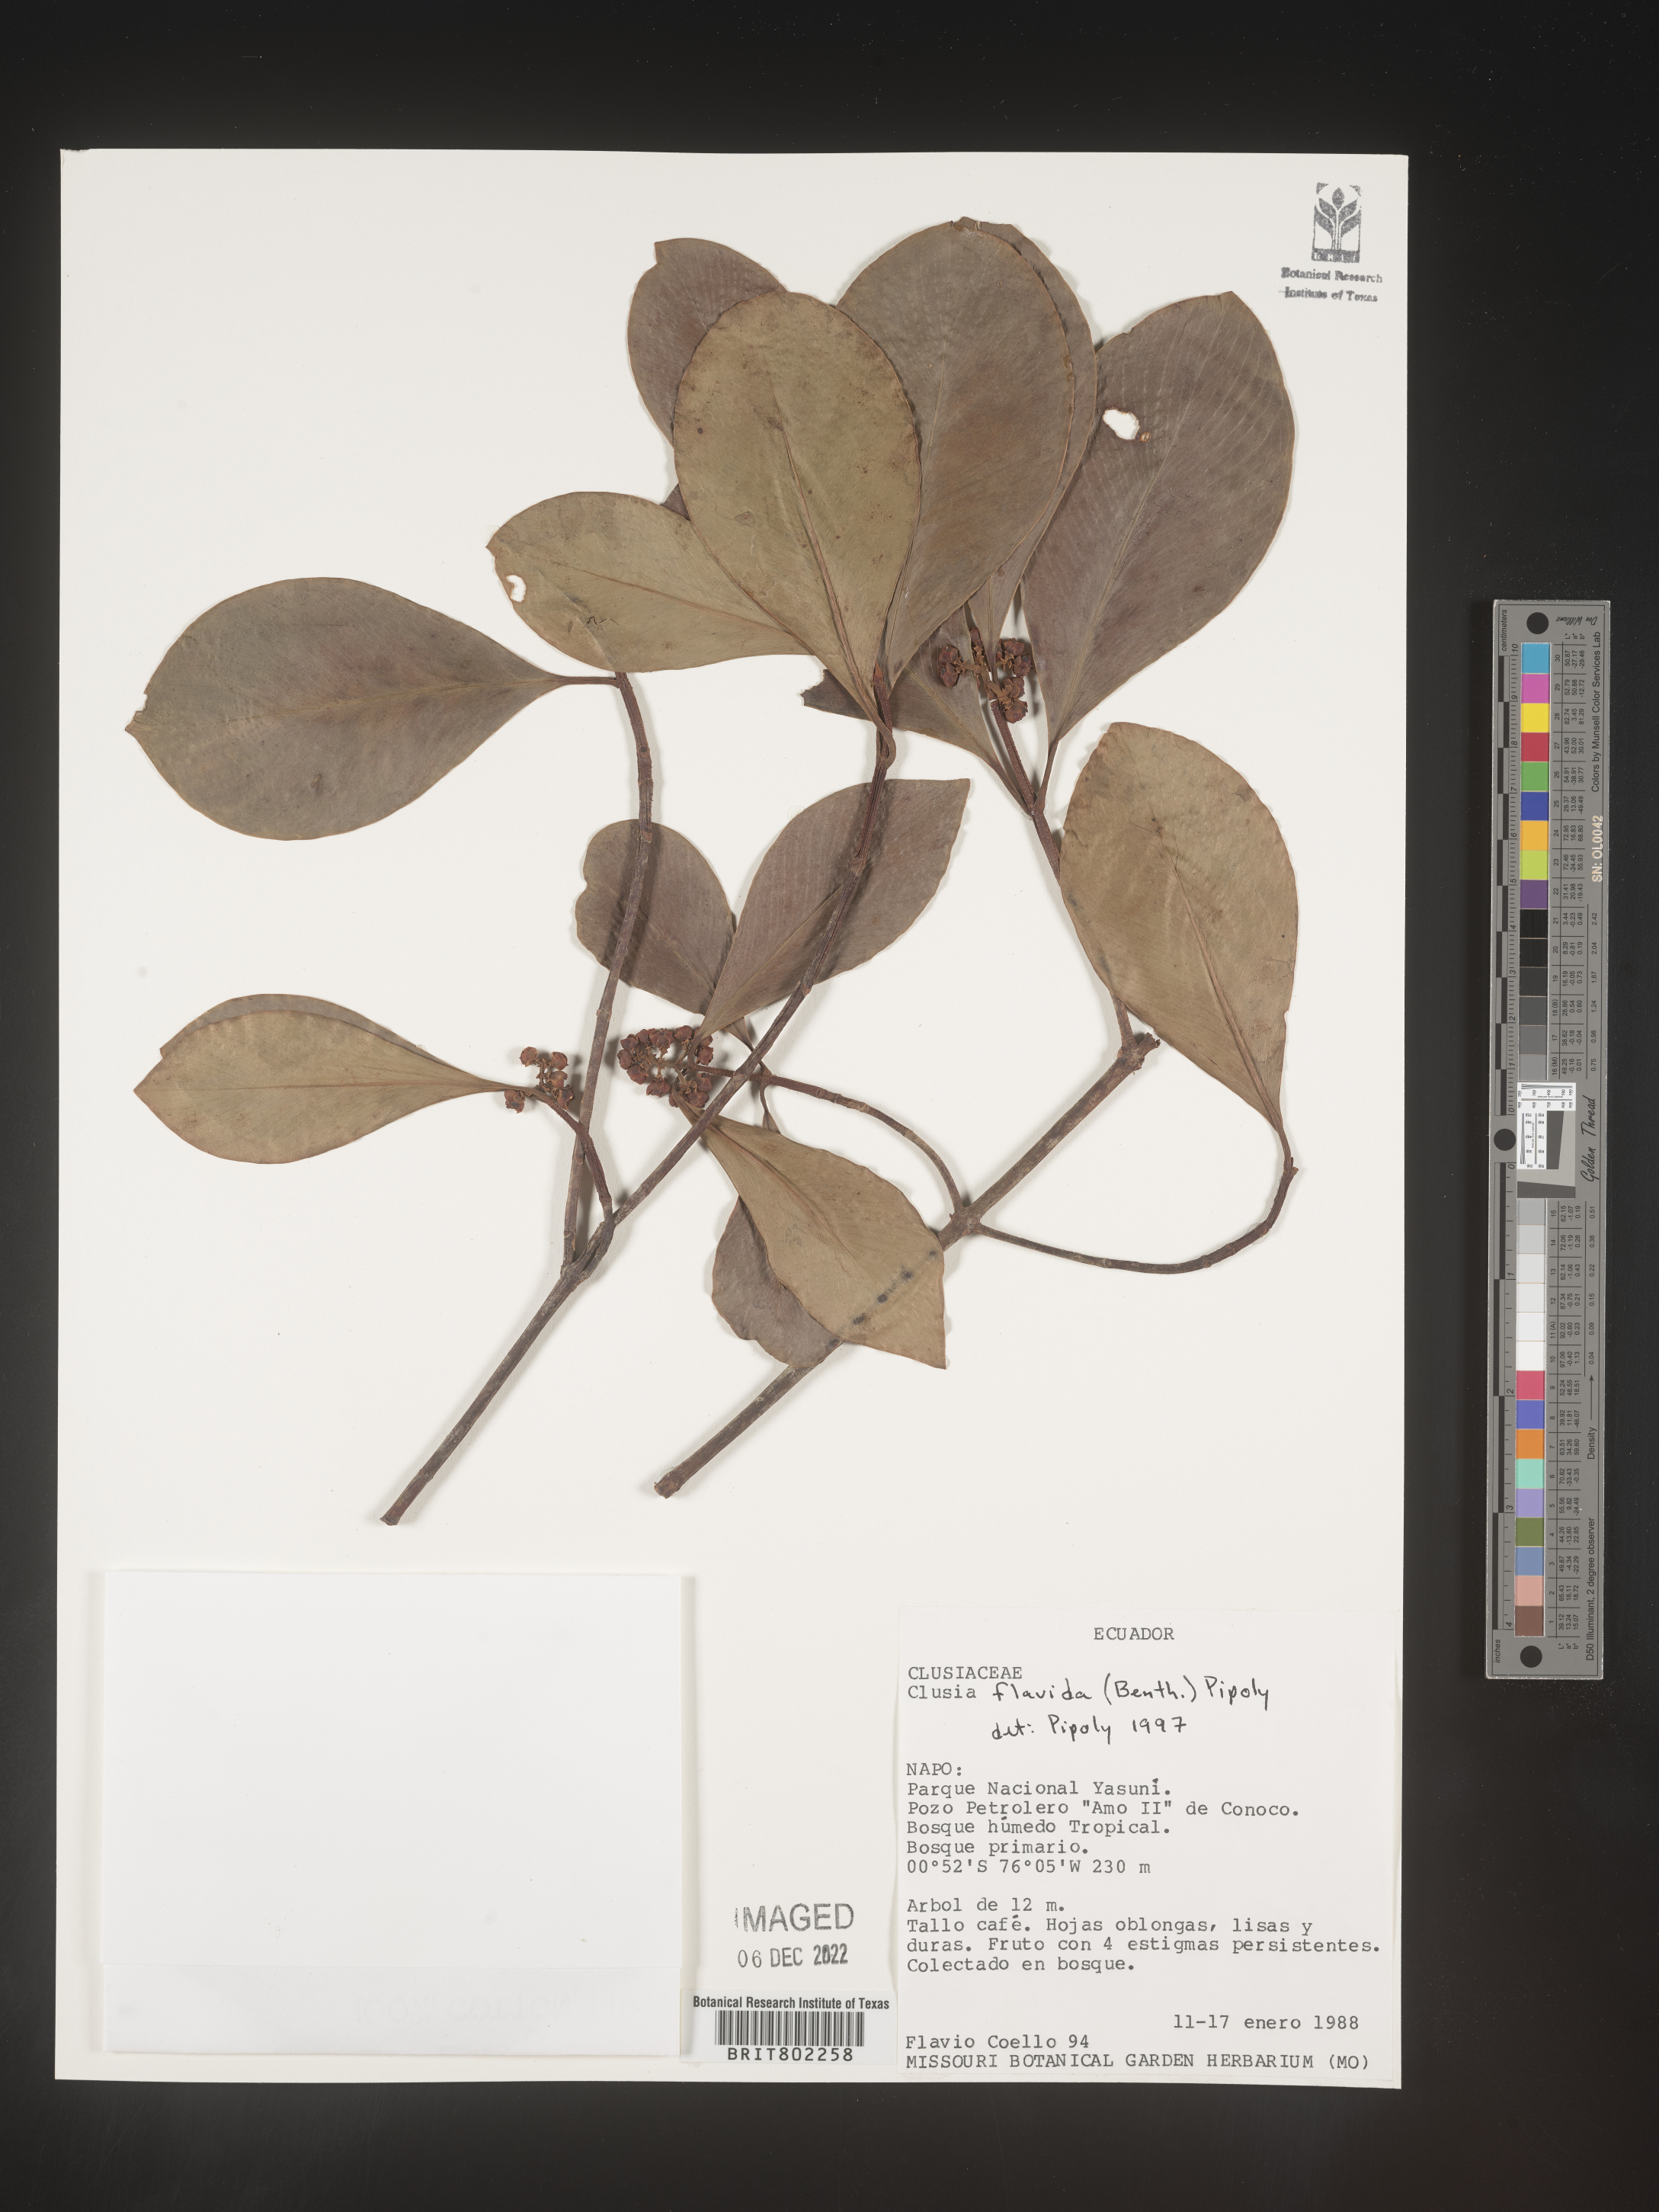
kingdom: Plantae
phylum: Tracheophyta
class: Magnoliopsida
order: Malpighiales
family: Clusiaceae
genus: Clusia
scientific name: Clusia flavida
